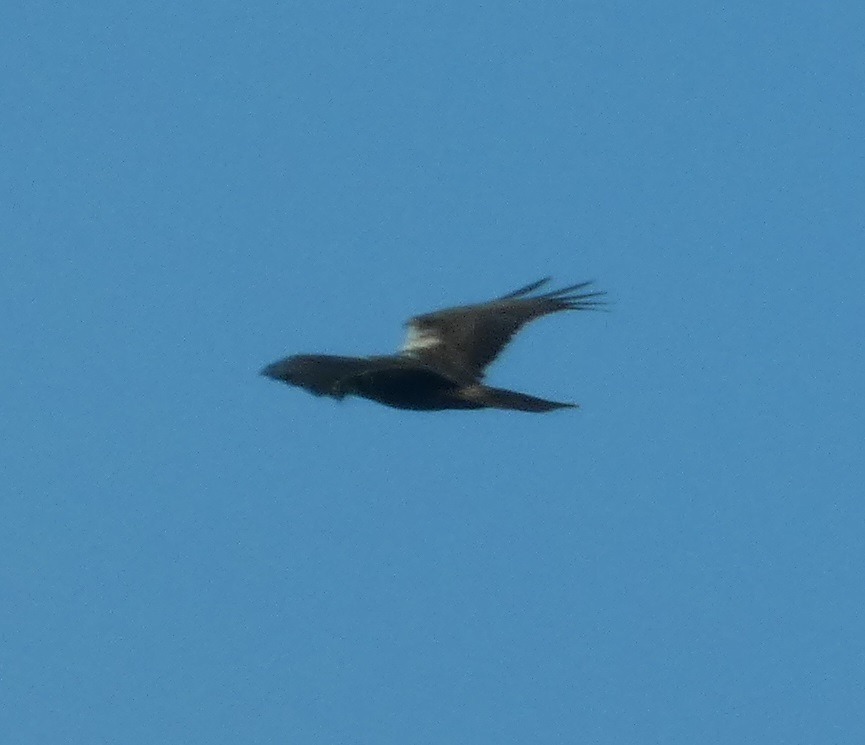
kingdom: Animalia
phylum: Chordata
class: Aves
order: Accipitriformes
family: Accipitridae
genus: Circus
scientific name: Circus aeruginosus
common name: Rørhøg
